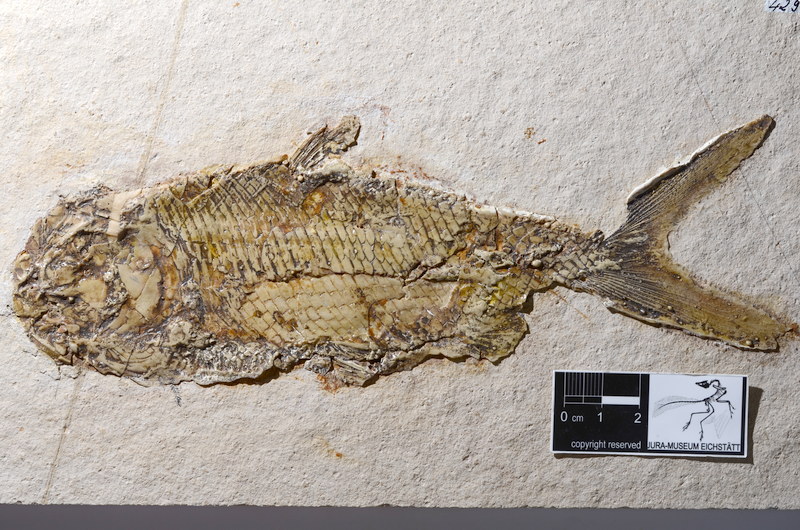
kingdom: Animalia
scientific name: Animalia
